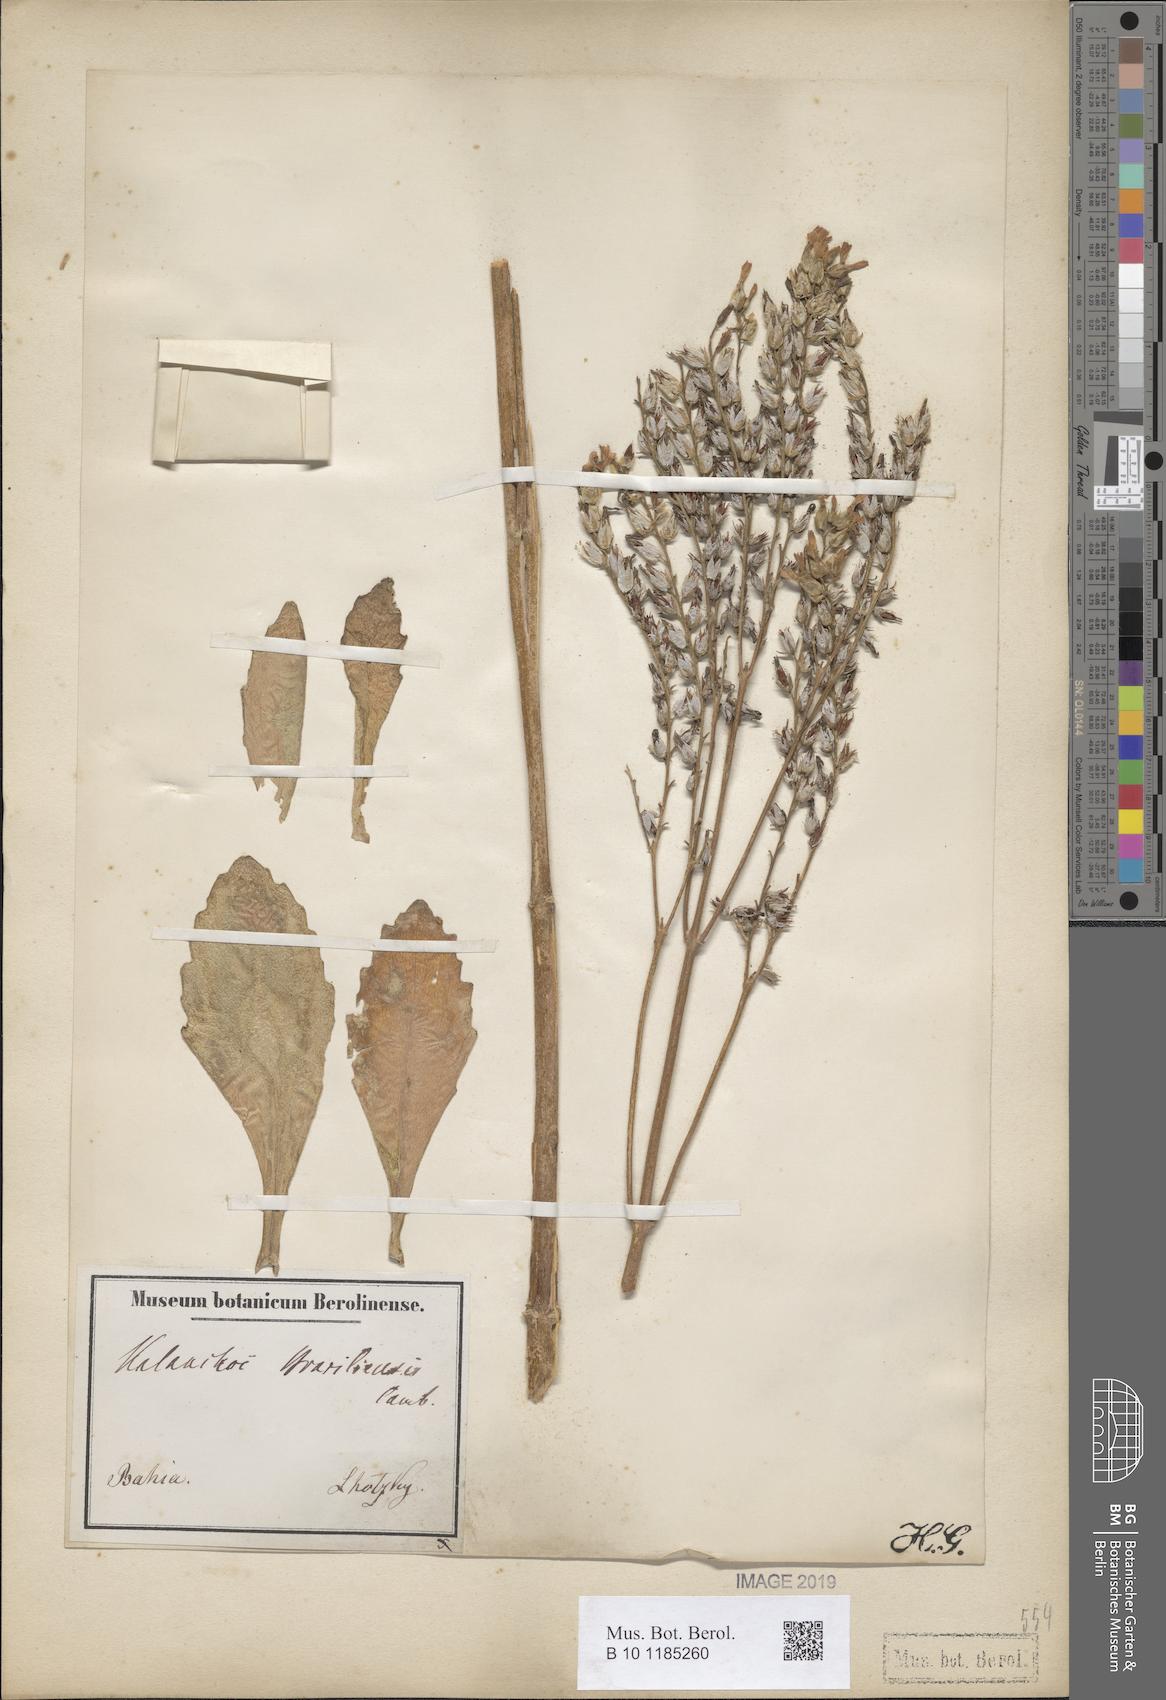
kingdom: Plantae
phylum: Tracheophyta
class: Magnoliopsida
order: Saxifragales
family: Crassulaceae
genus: Kalanchoe
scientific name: Kalanchoe crenata
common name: Neverdie
